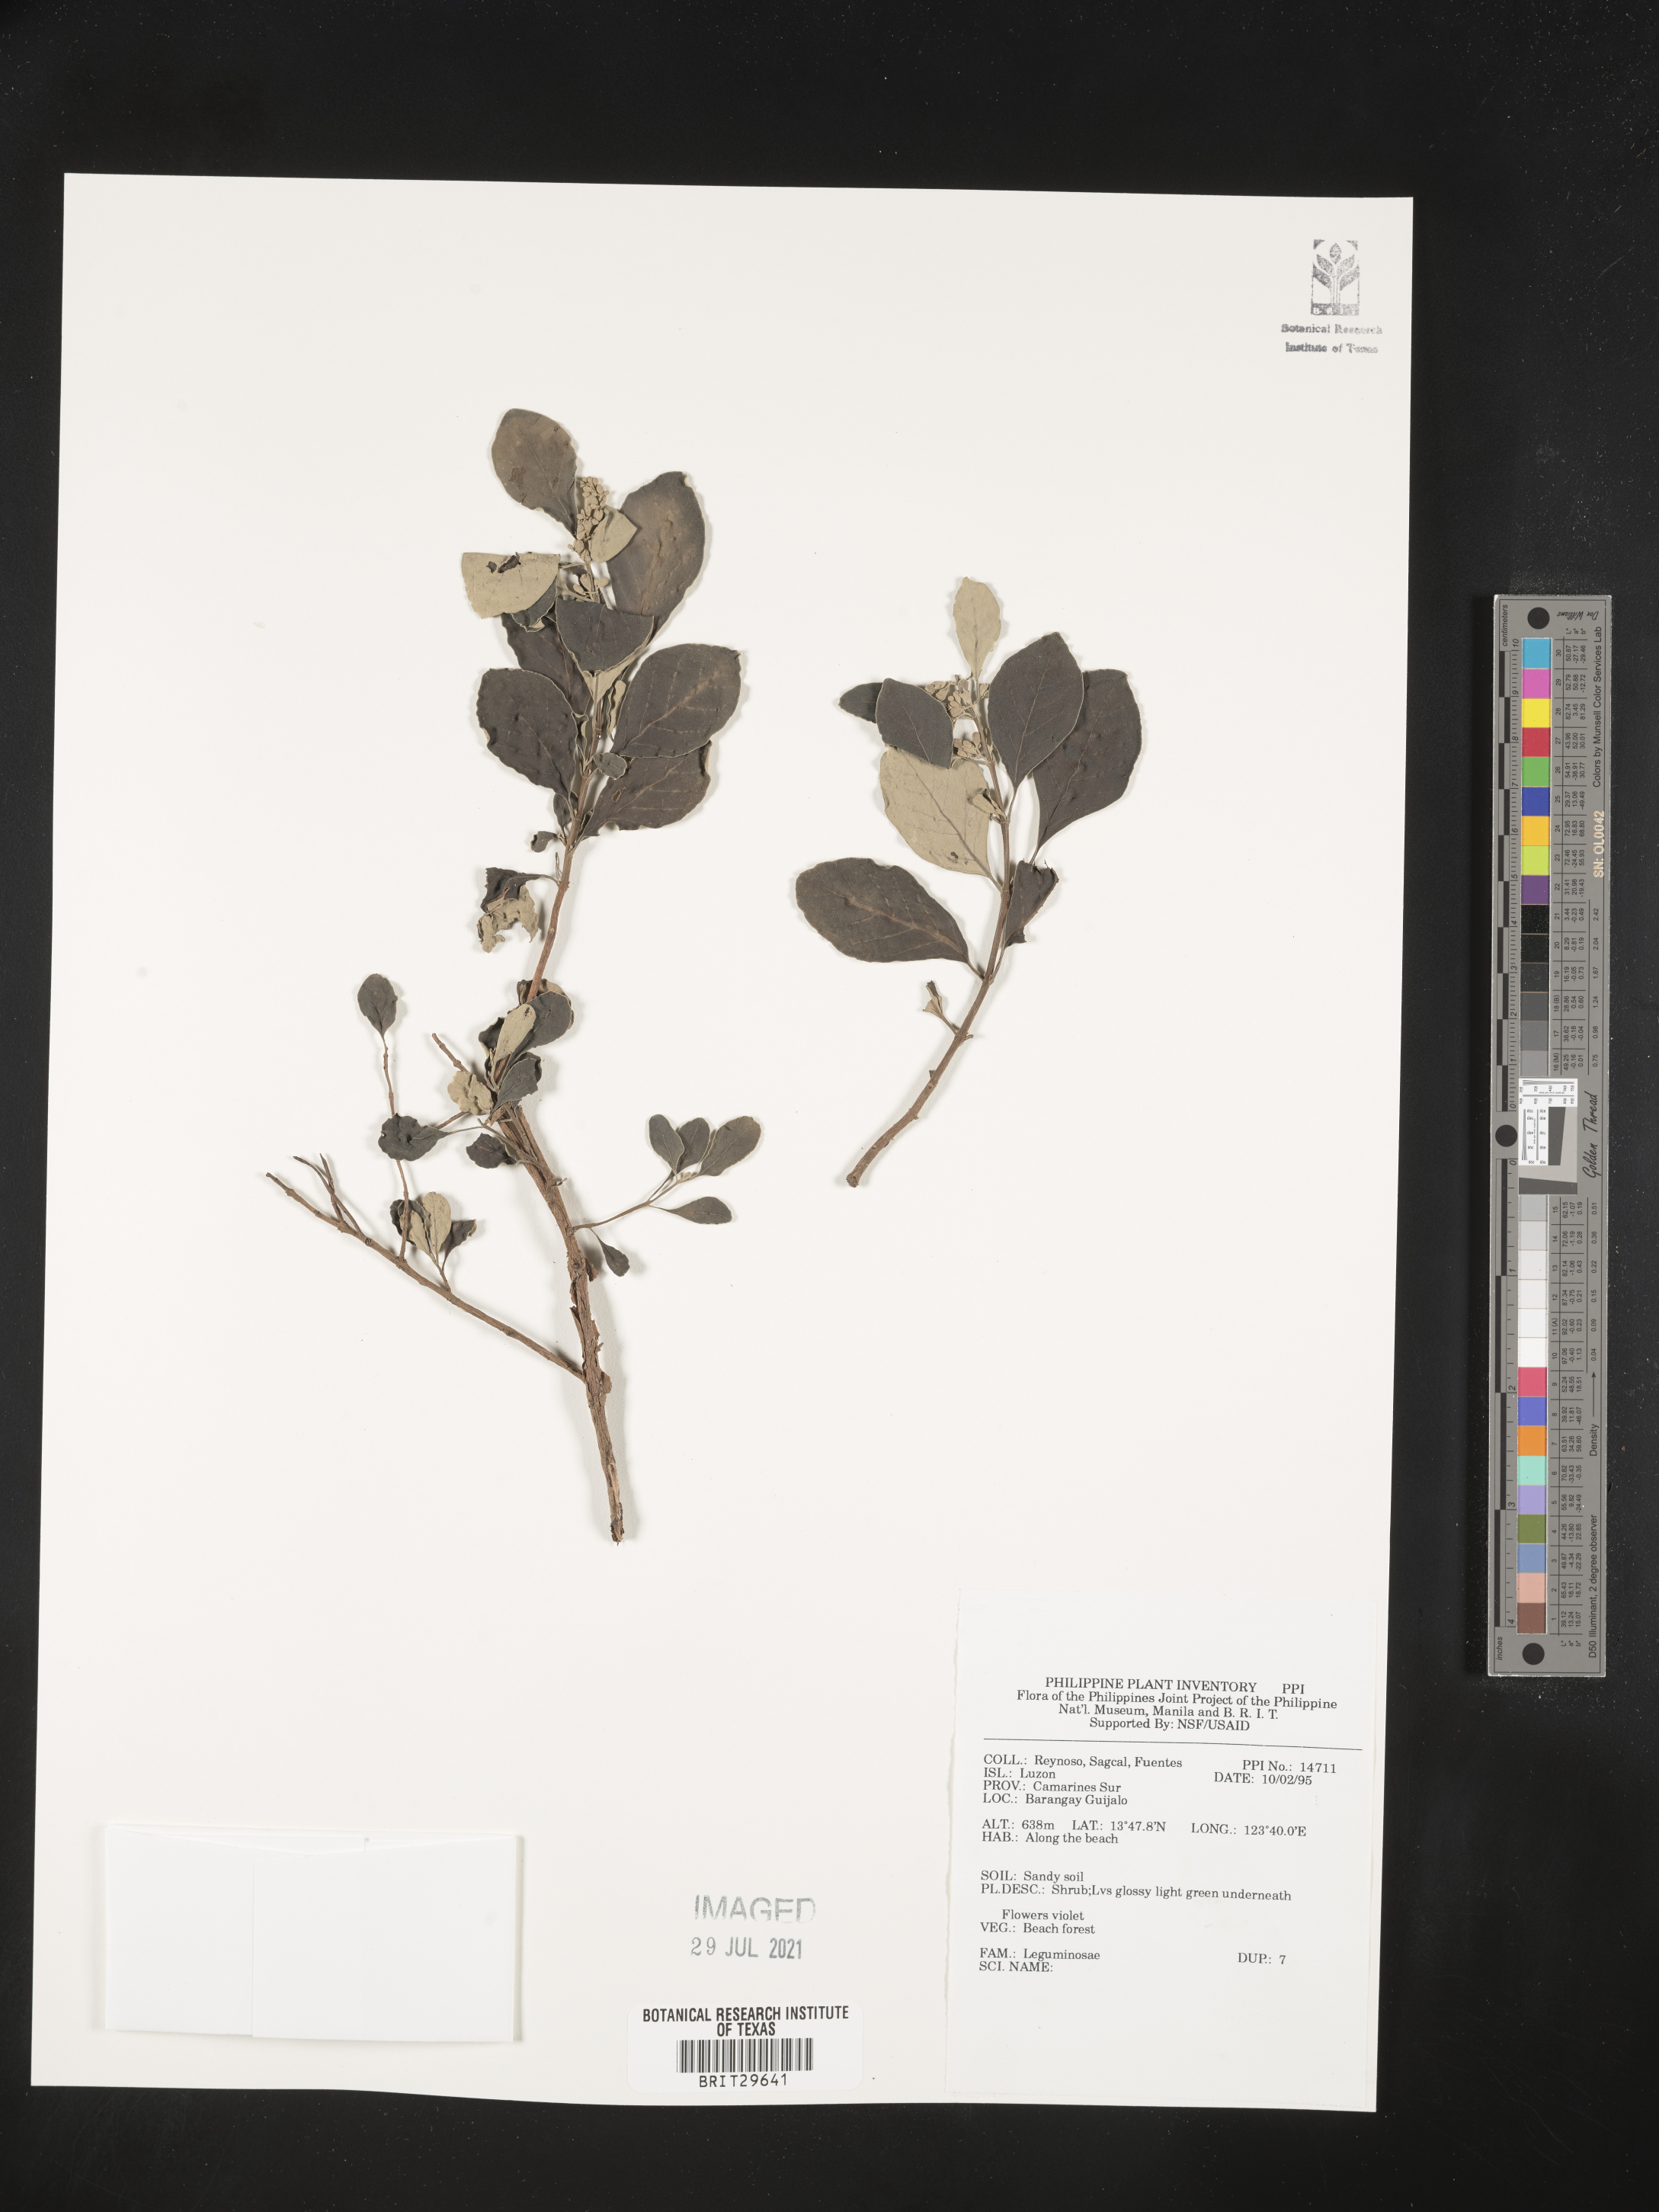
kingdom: Plantae
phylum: Tracheophyta
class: Magnoliopsida
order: Fabales
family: Fabaceae
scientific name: Fabaceae
